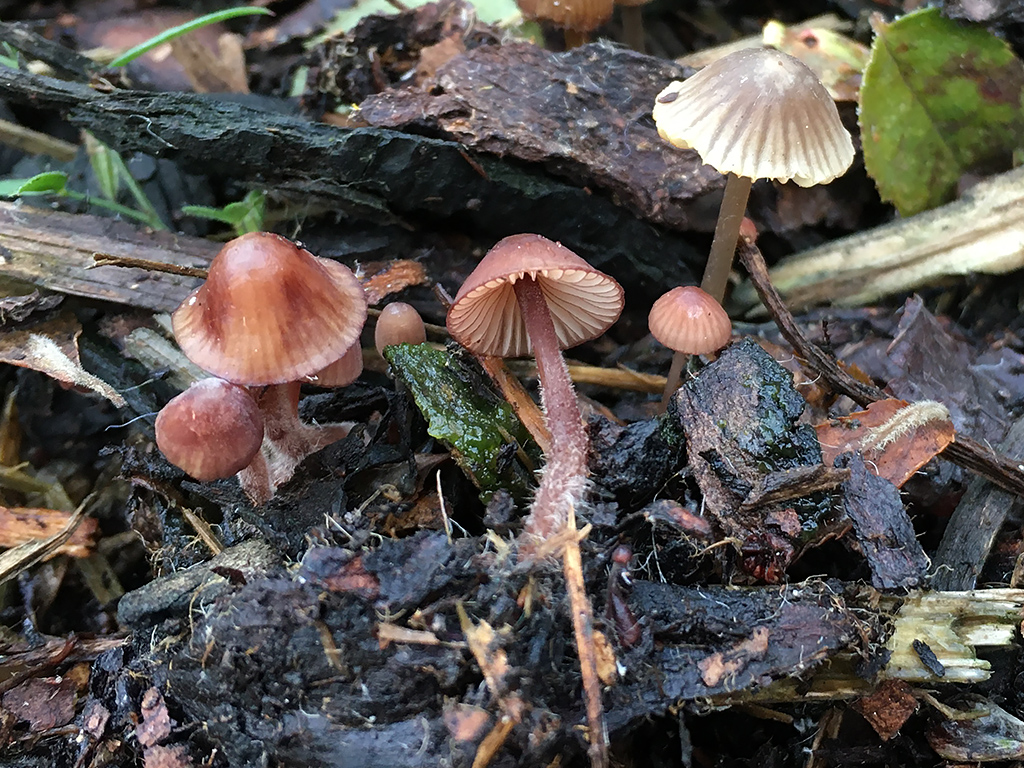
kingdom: Fungi
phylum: Basidiomycota
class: Agaricomycetes
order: Agaricales
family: Mycenaceae
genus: Mycena
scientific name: Mycena sanguinolenta
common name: rødmælket huesvamp
